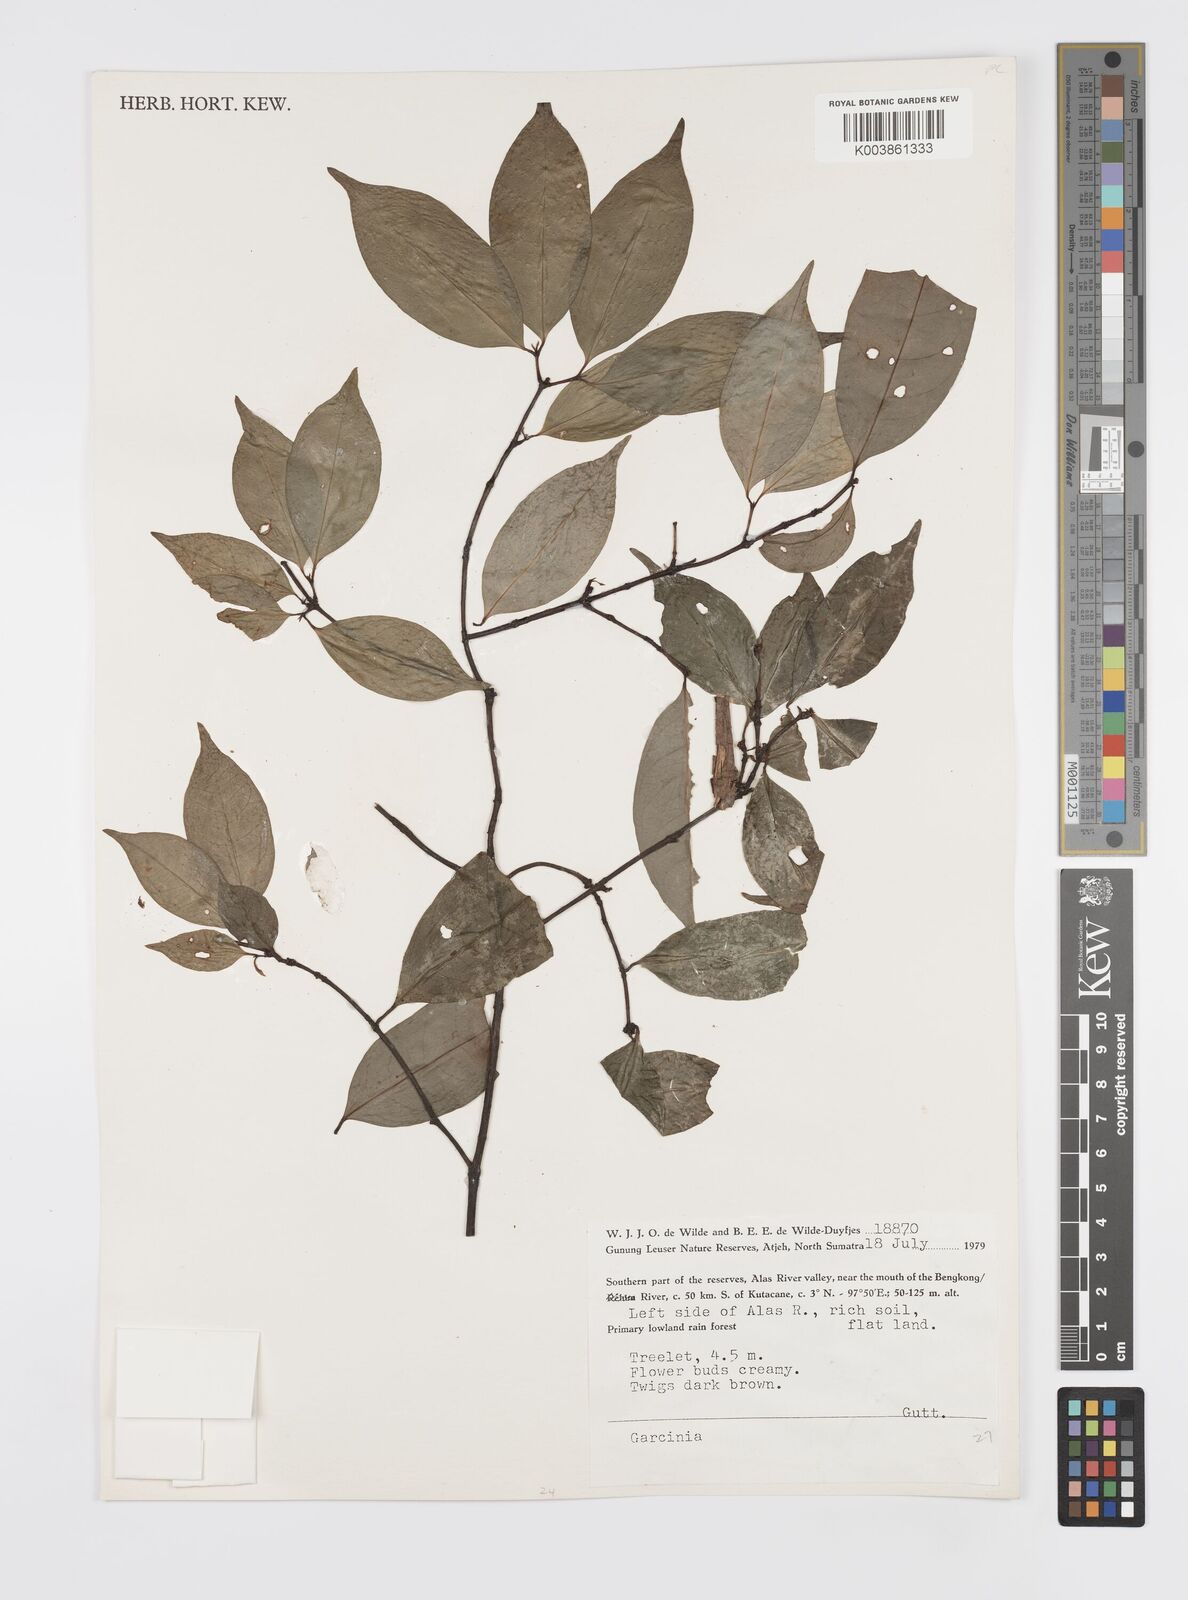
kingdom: Plantae
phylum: Tracheophyta
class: Magnoliopsida
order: Malpighiales
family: Clusiaceae
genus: Garcinia
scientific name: Garcinia
